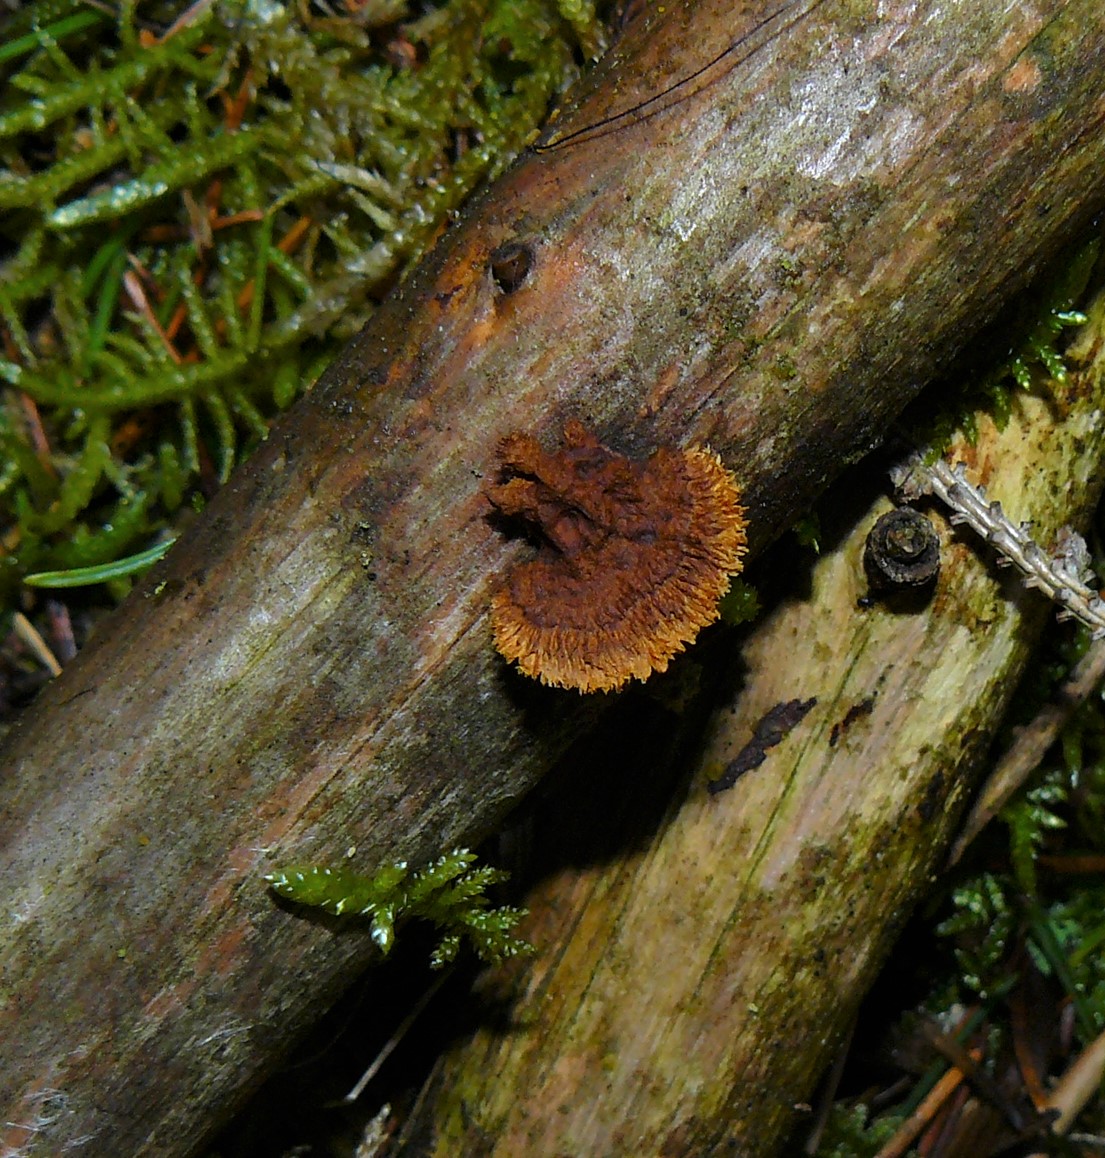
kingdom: Fungi
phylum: Basidiomycota
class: Agaricomycetes
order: Gloeophyllales
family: Gloeophyllaceae
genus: Gloeophyllum
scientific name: Gloeophyllum sepiarium
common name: fyrre-korkhat
